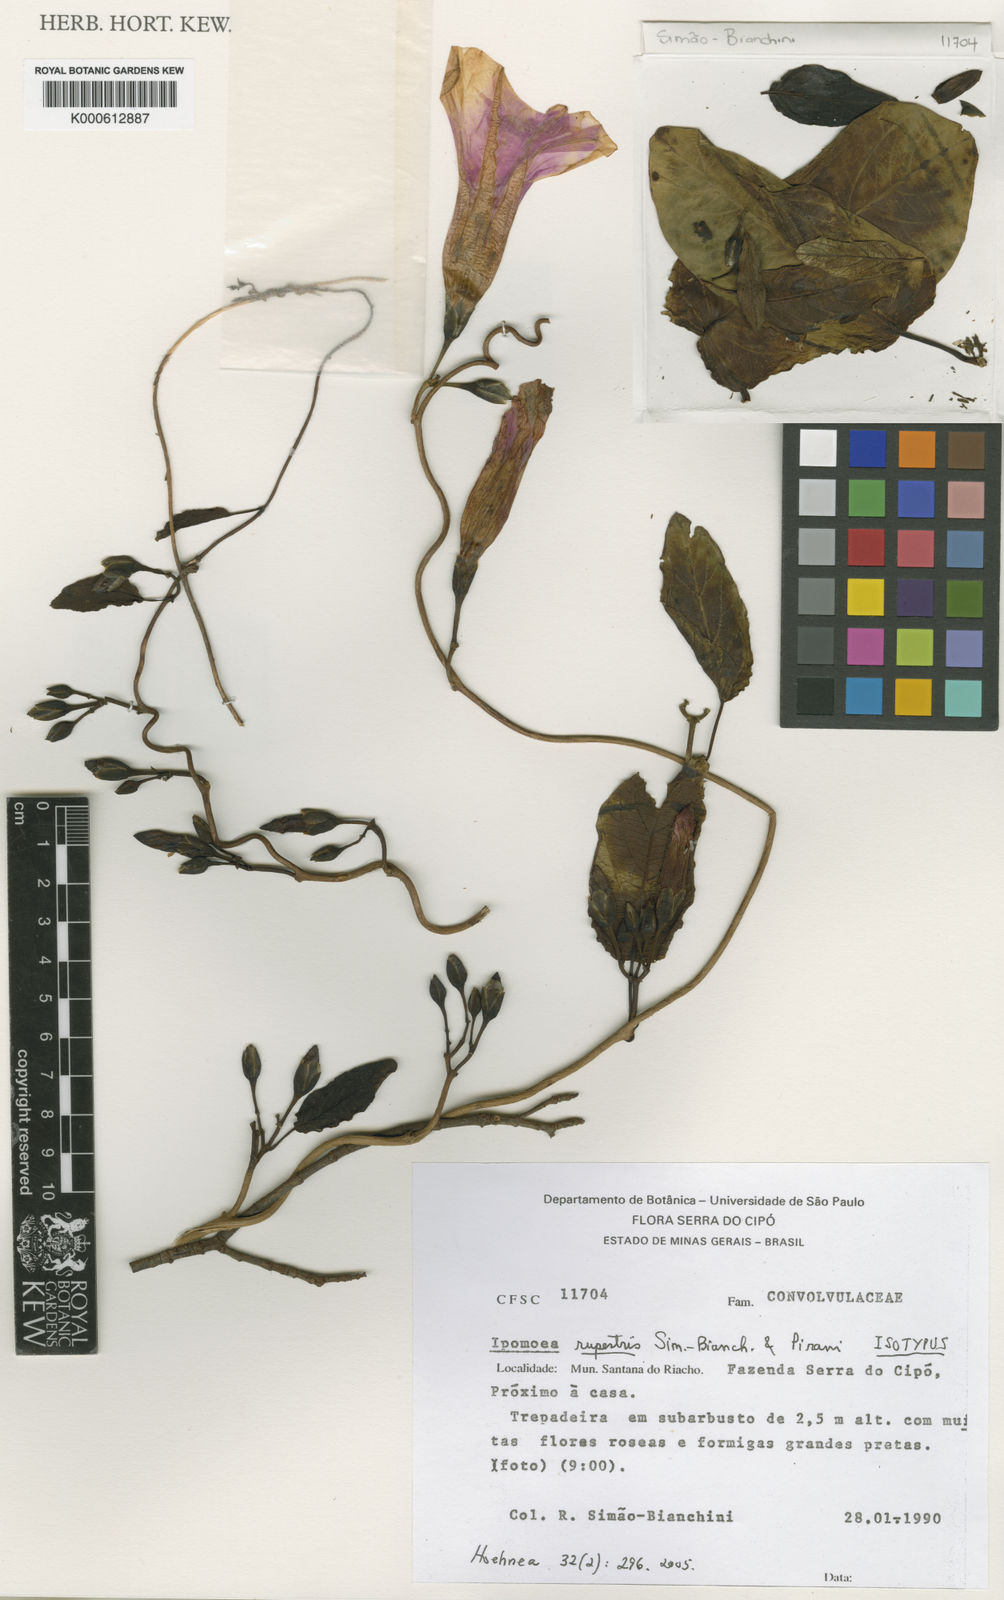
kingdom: Plantae
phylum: Tracheophyta
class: Magnoliopsida
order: Solanales
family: Convolvulaceae
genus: Ipomoea
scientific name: Ipomoea rupestris
